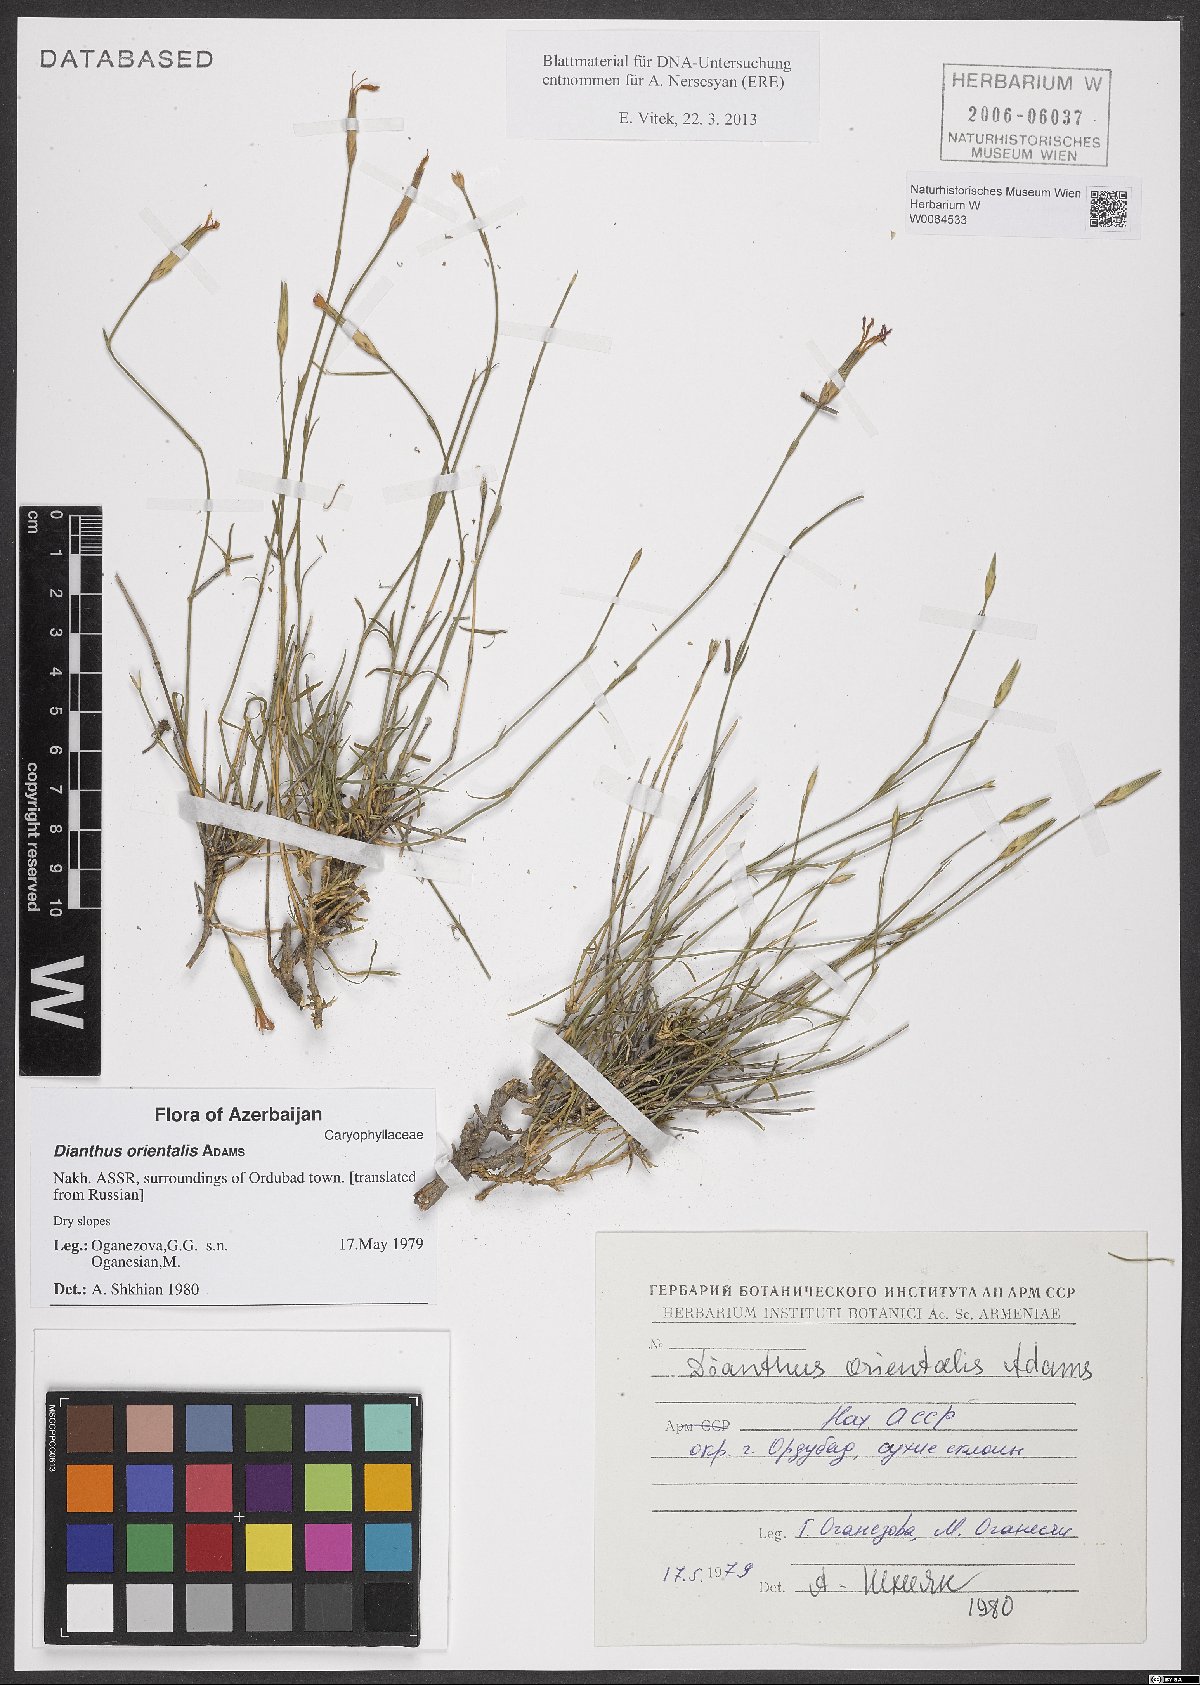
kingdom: Plantae
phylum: Tracheophyta
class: Magnoliopsida
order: Caryophyllales
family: Caryophyllaceae
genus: Dianthus
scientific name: Dianthus orientalis
